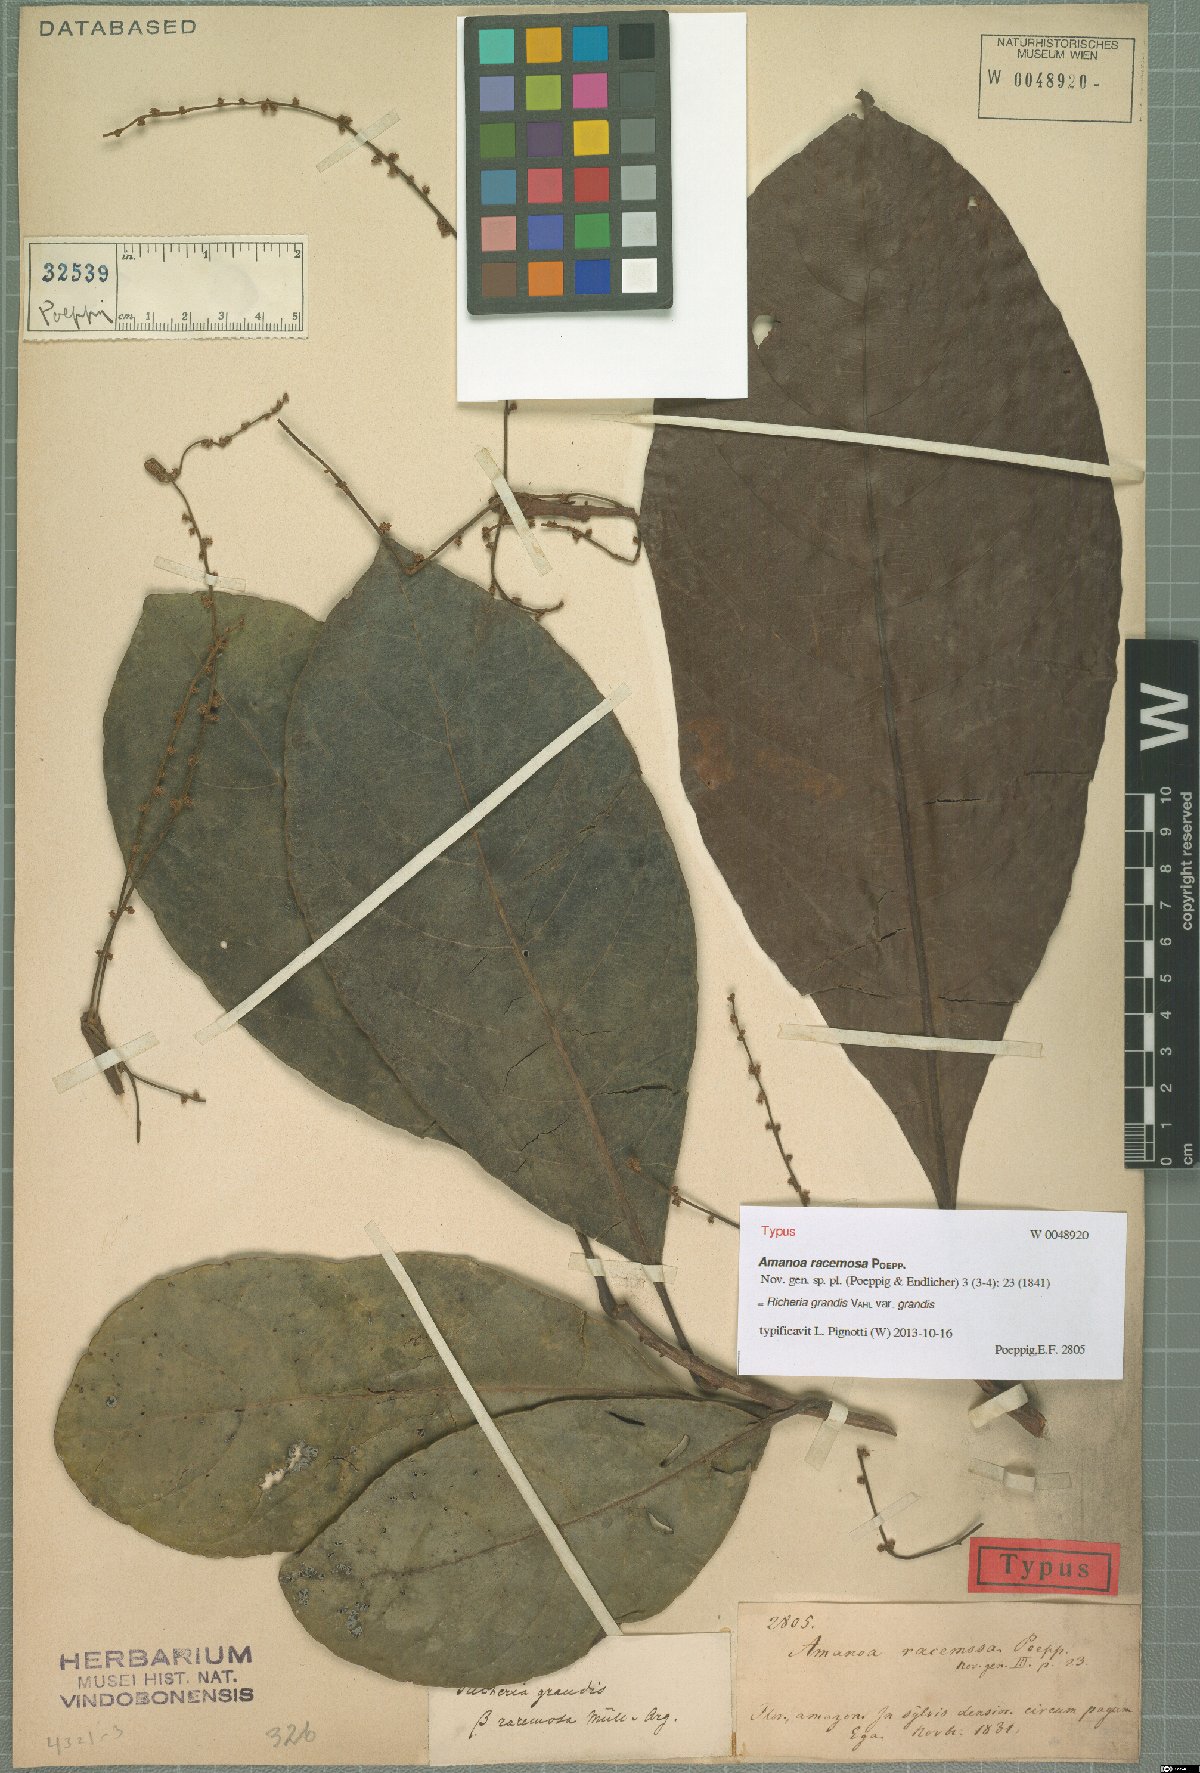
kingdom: Plantae
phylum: Tracheophyta
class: Magnoliopsida
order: Malpighiales
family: Phyllanthaceae
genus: Richeria
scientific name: Richeria grandis
